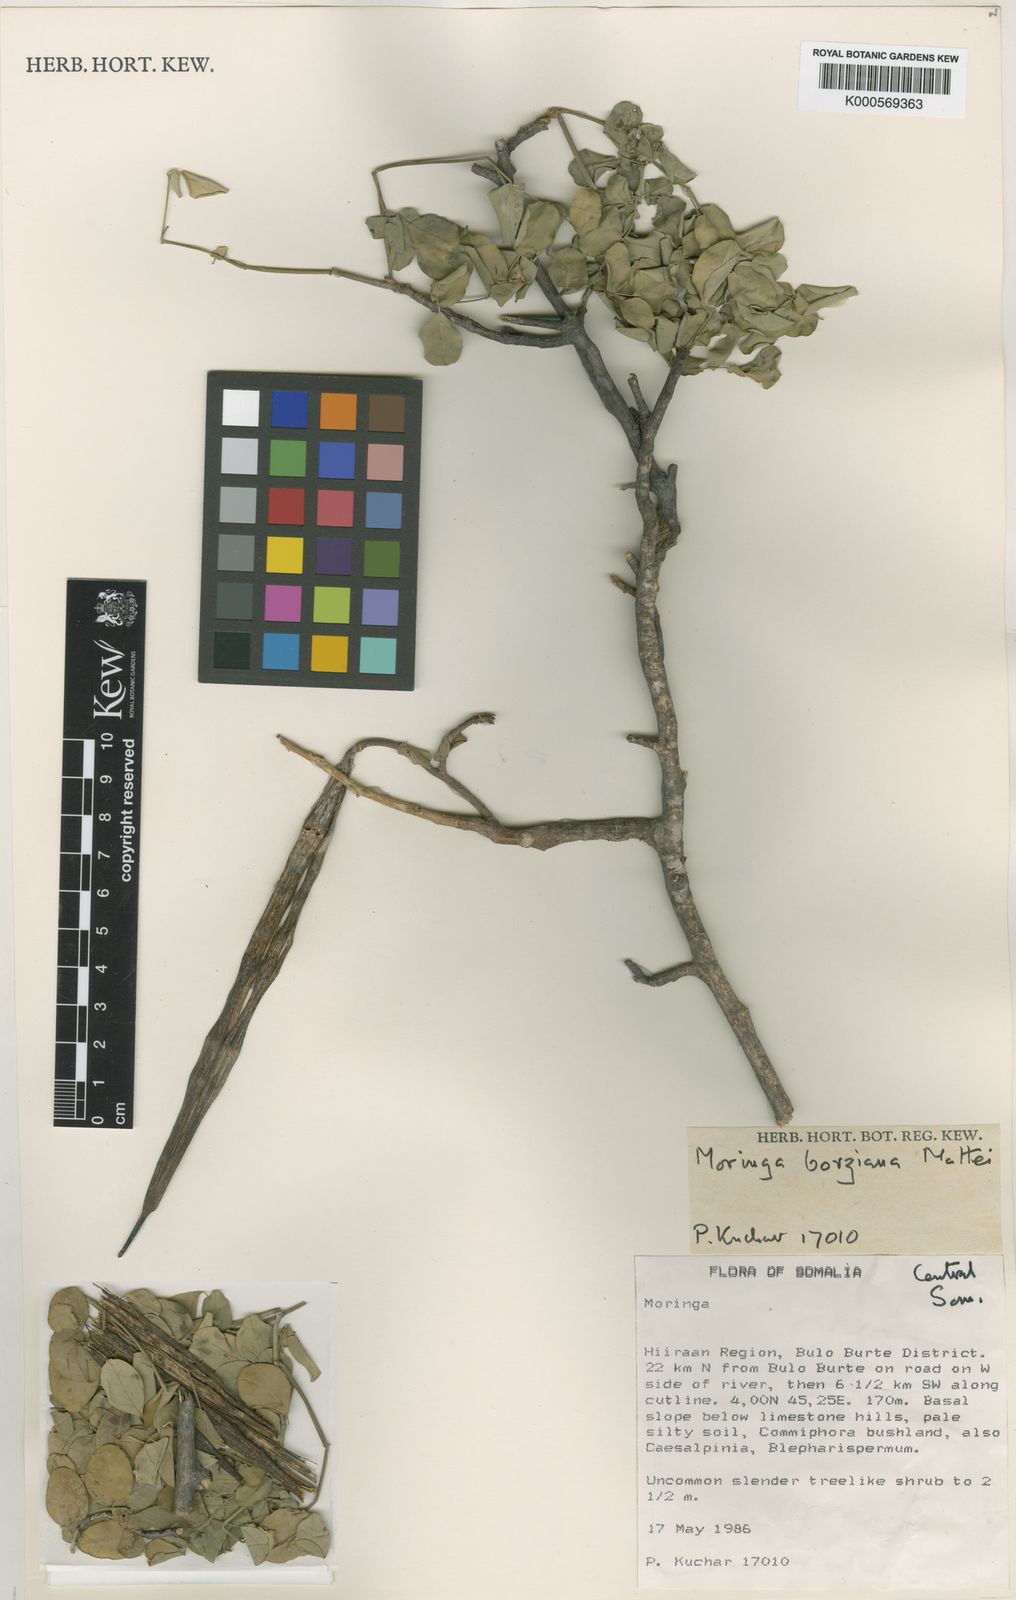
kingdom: Plantae
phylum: Tracheophyta
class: Magnoliopsida
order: Brassicales
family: Moringaceae
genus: Moringa
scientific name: Moringa borziana
